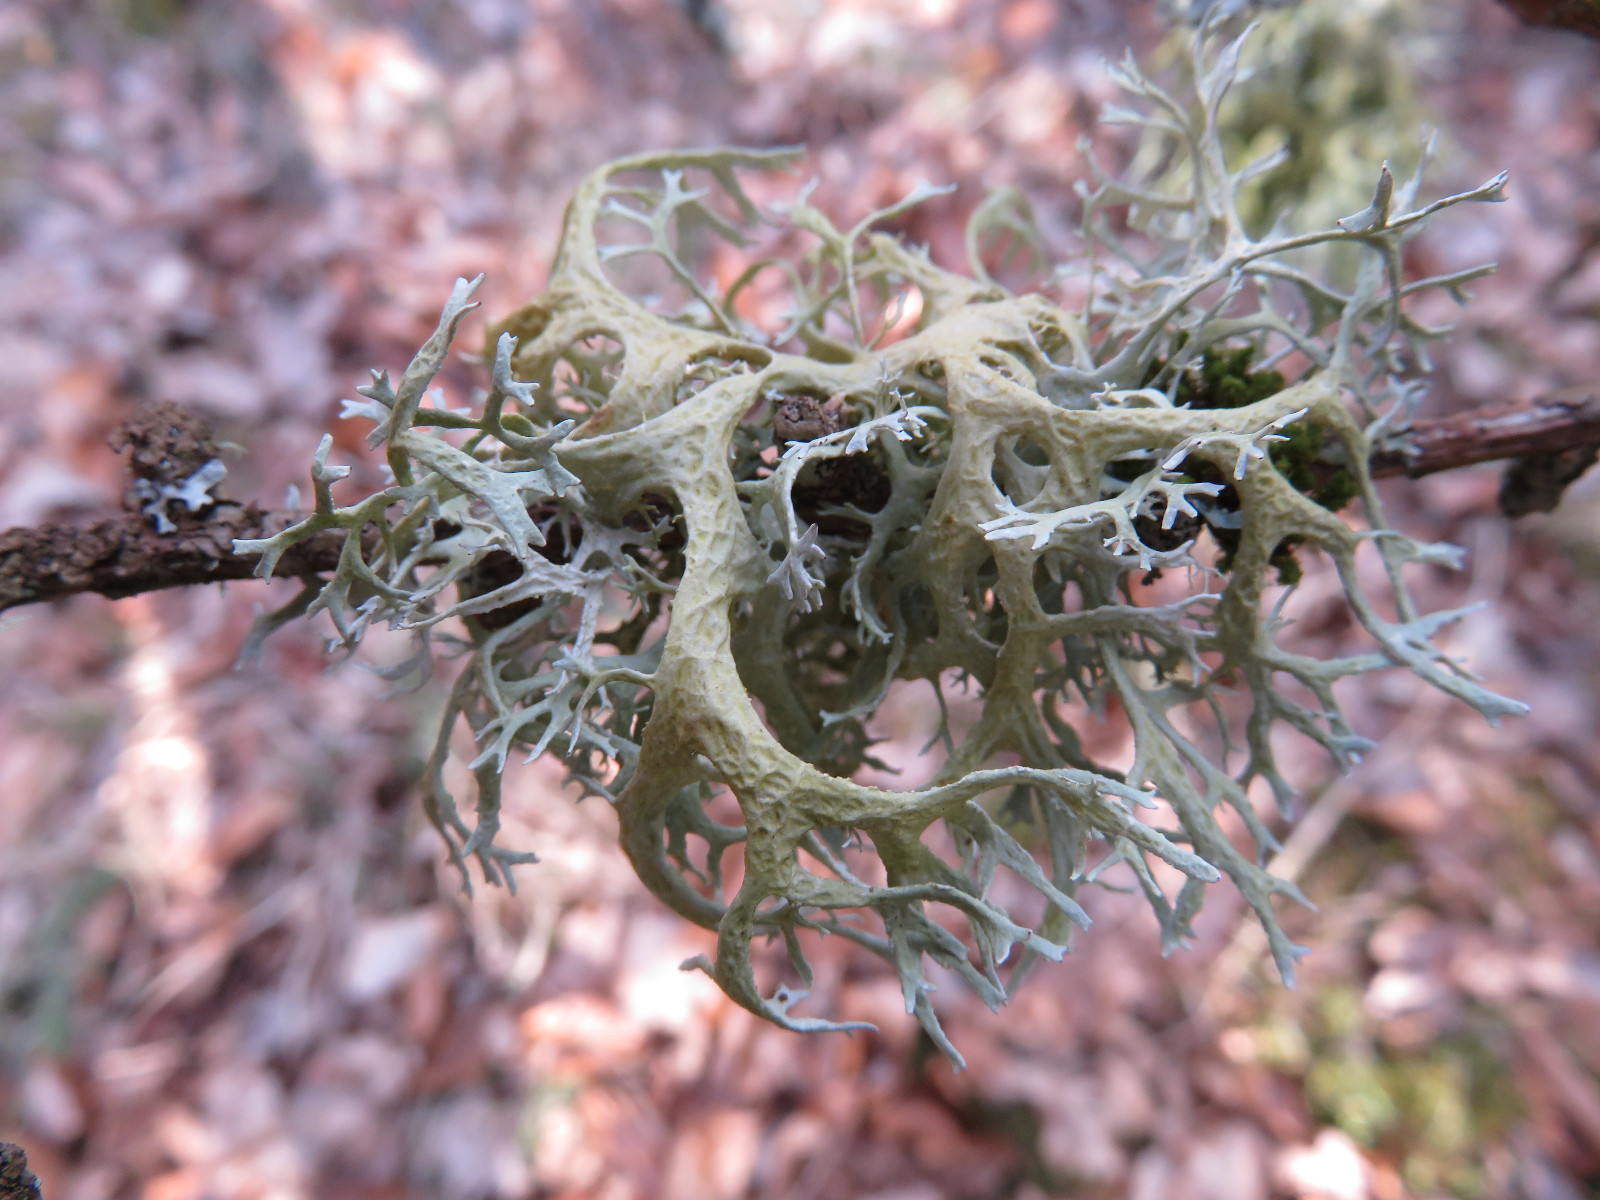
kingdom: Fungi
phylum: Ascomycota
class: Lecanoromycetes
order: Lecanorales
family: Parmeliaceae
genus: Evernia
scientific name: Evernia prunastri
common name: almindelig slåenlav
